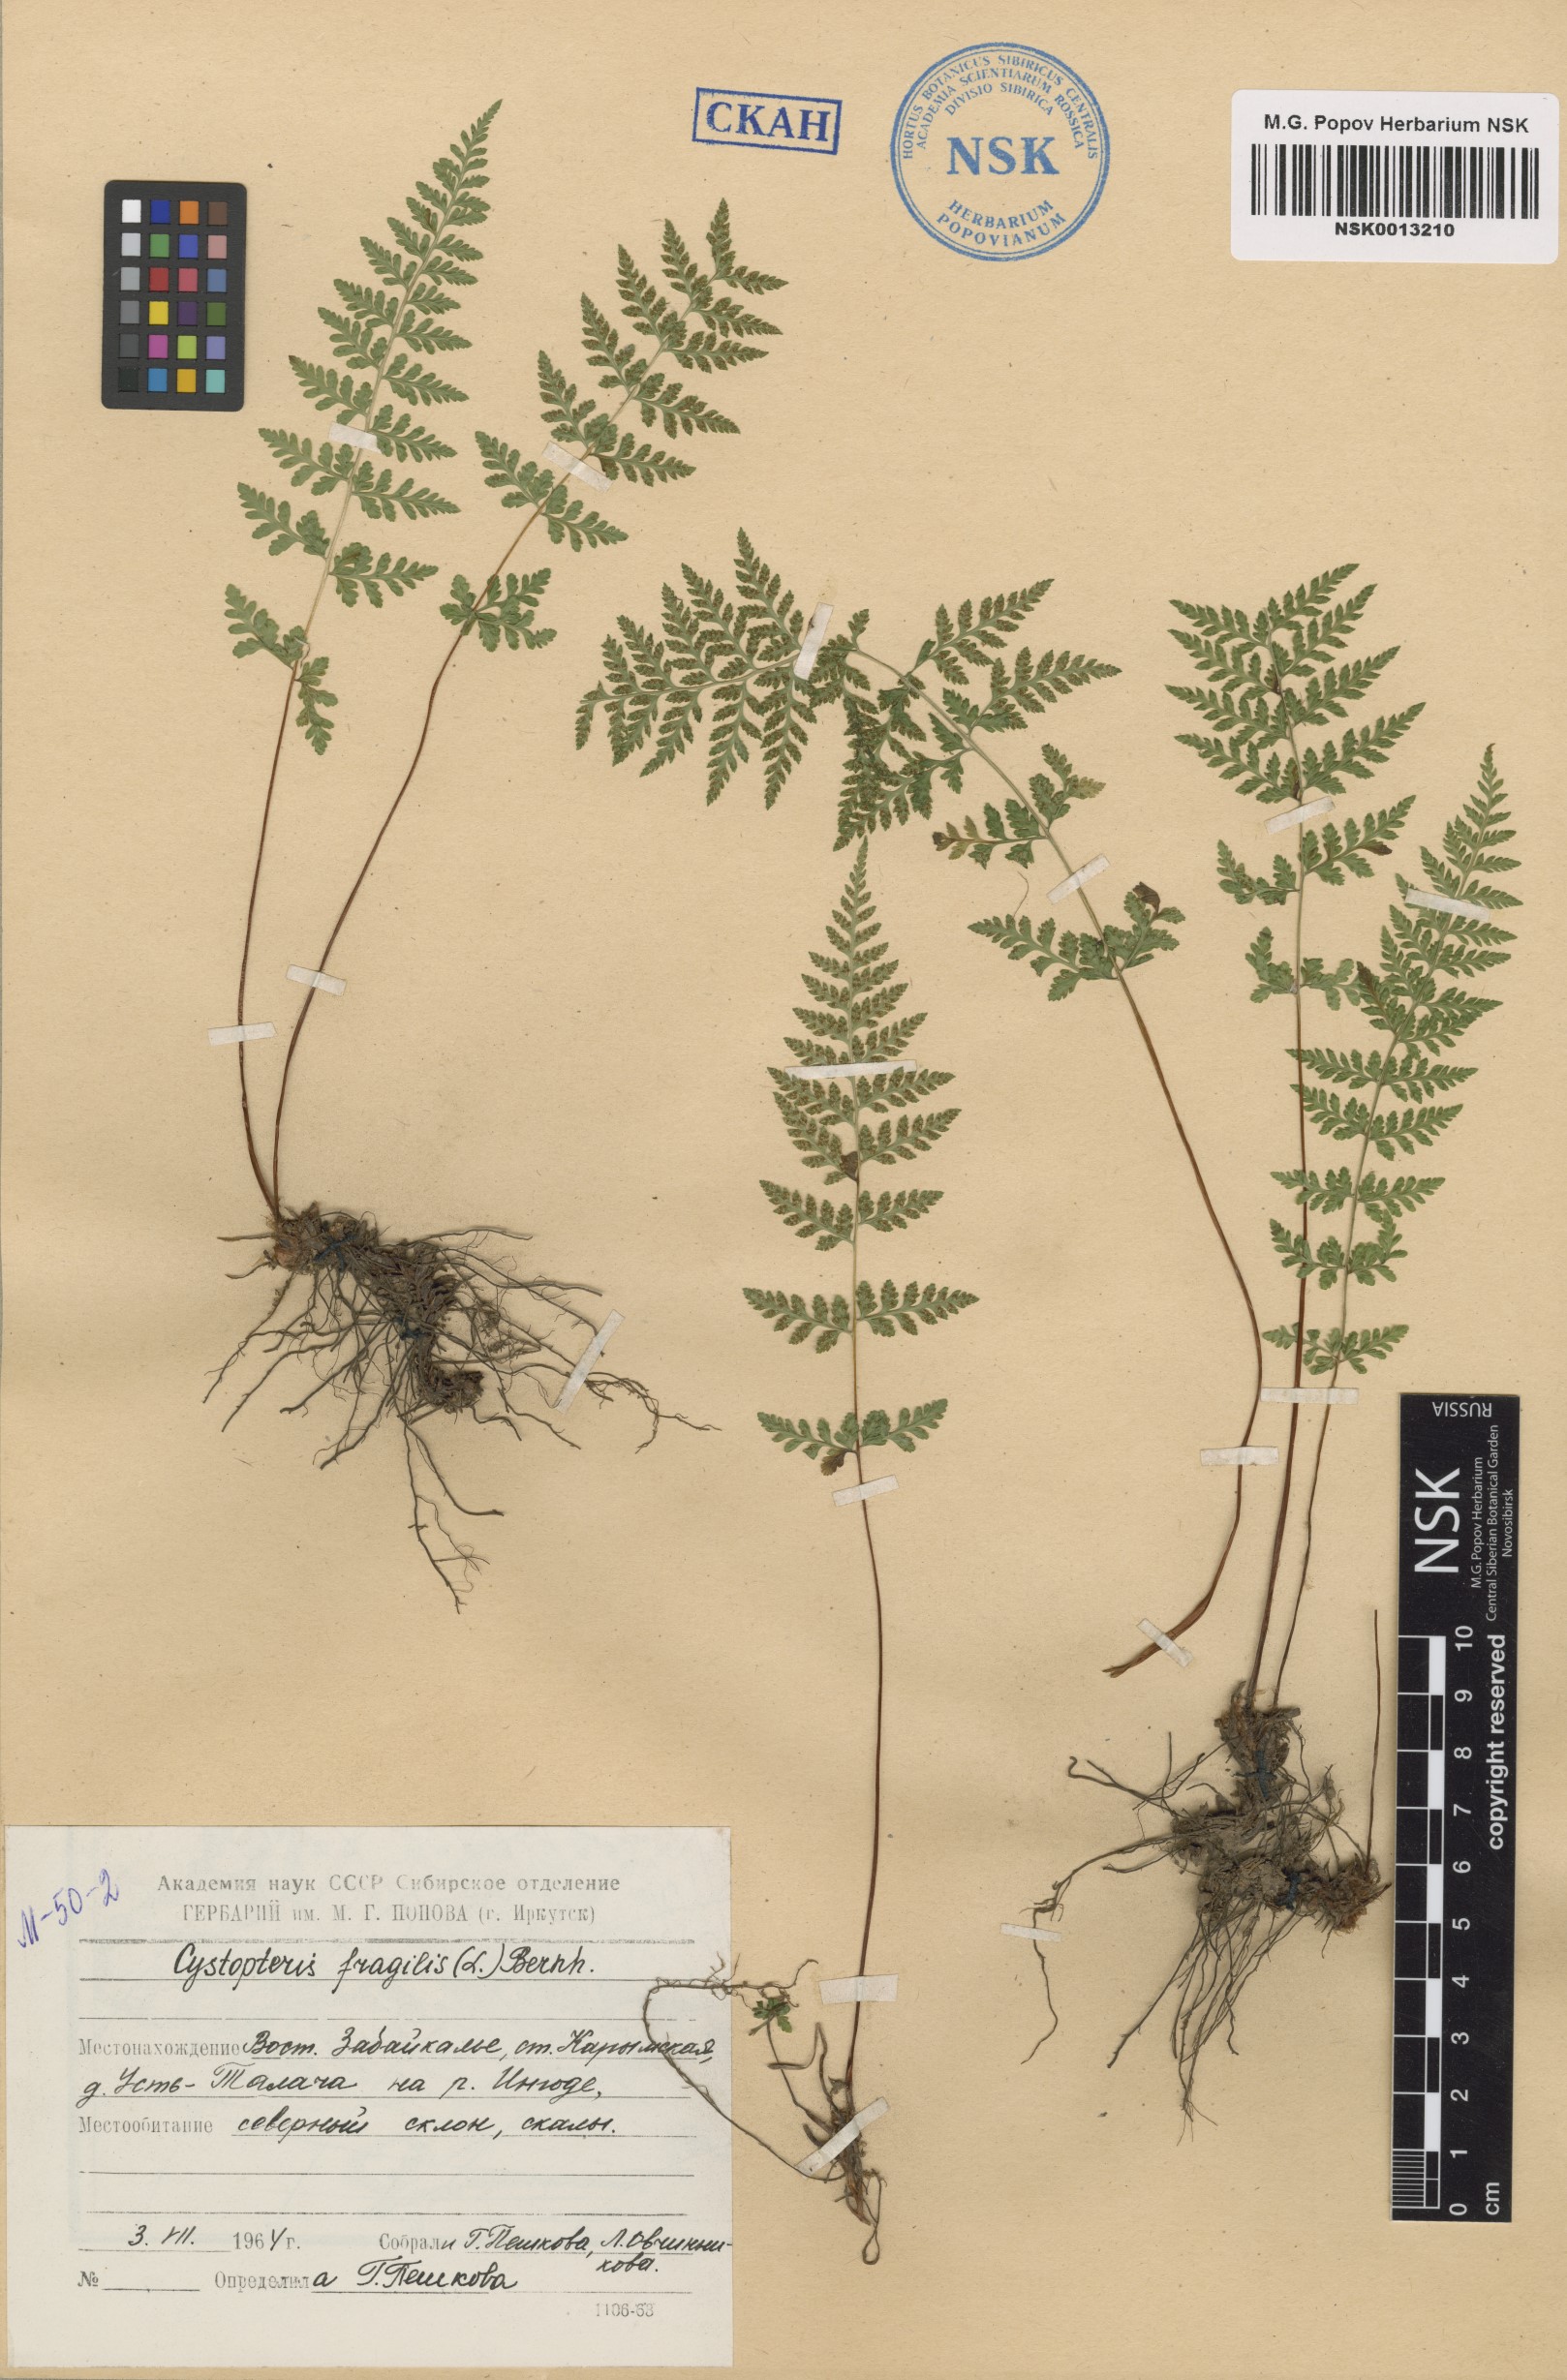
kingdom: Plantae
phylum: Tracheophyta
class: Polypodiopsida
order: Polypodiales
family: Cystopteridaceae
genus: Cystopteris
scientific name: Cystopteris fragilis
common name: Brittle bladder fern
